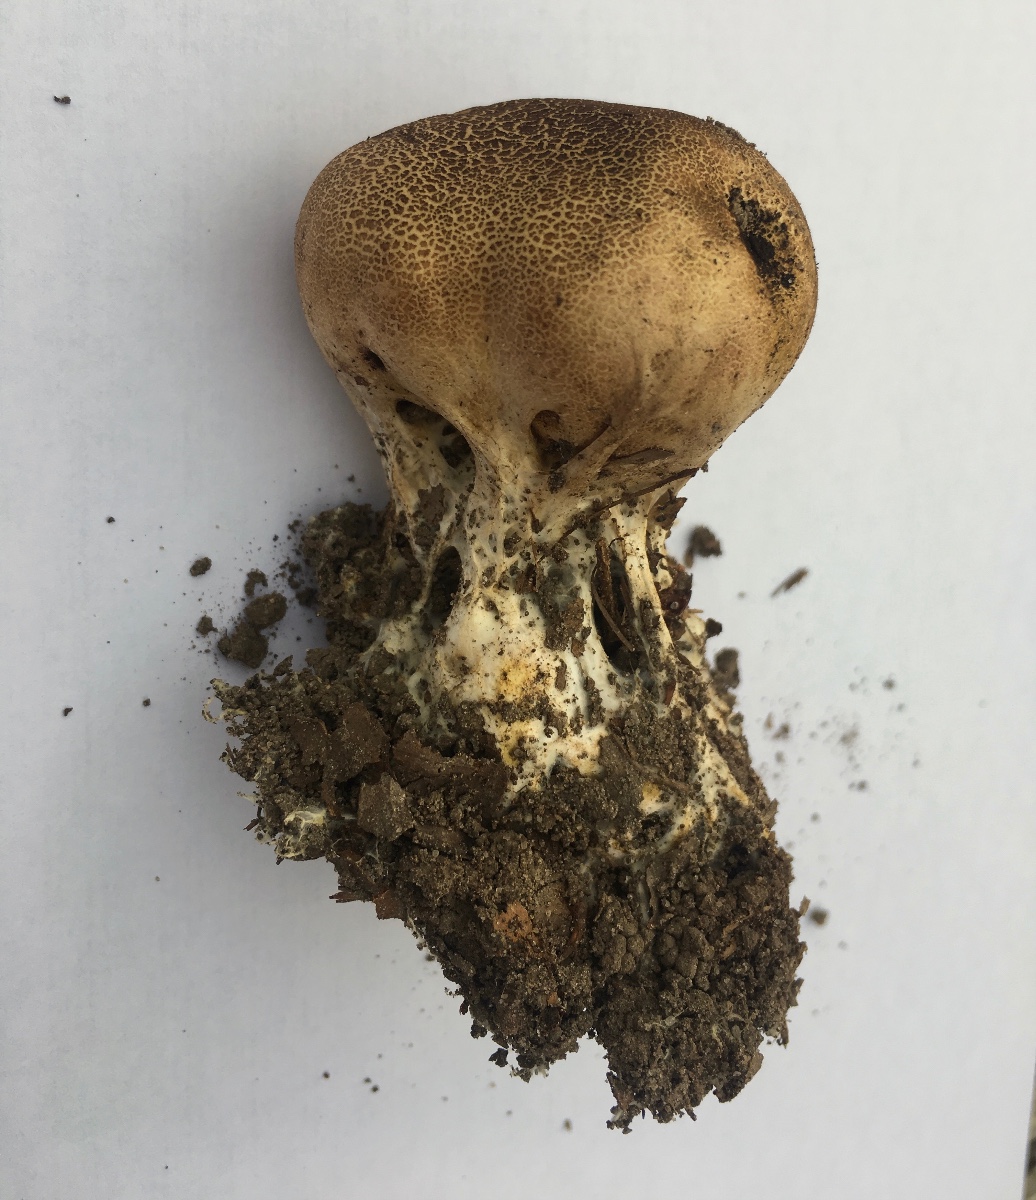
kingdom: Fungi
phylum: Basidiomycota
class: Agaricomycetes
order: Boletales
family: Sclerodermataceae
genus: Scleroderma
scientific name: Scleroderma verrucosum
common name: stilket bruskbold
